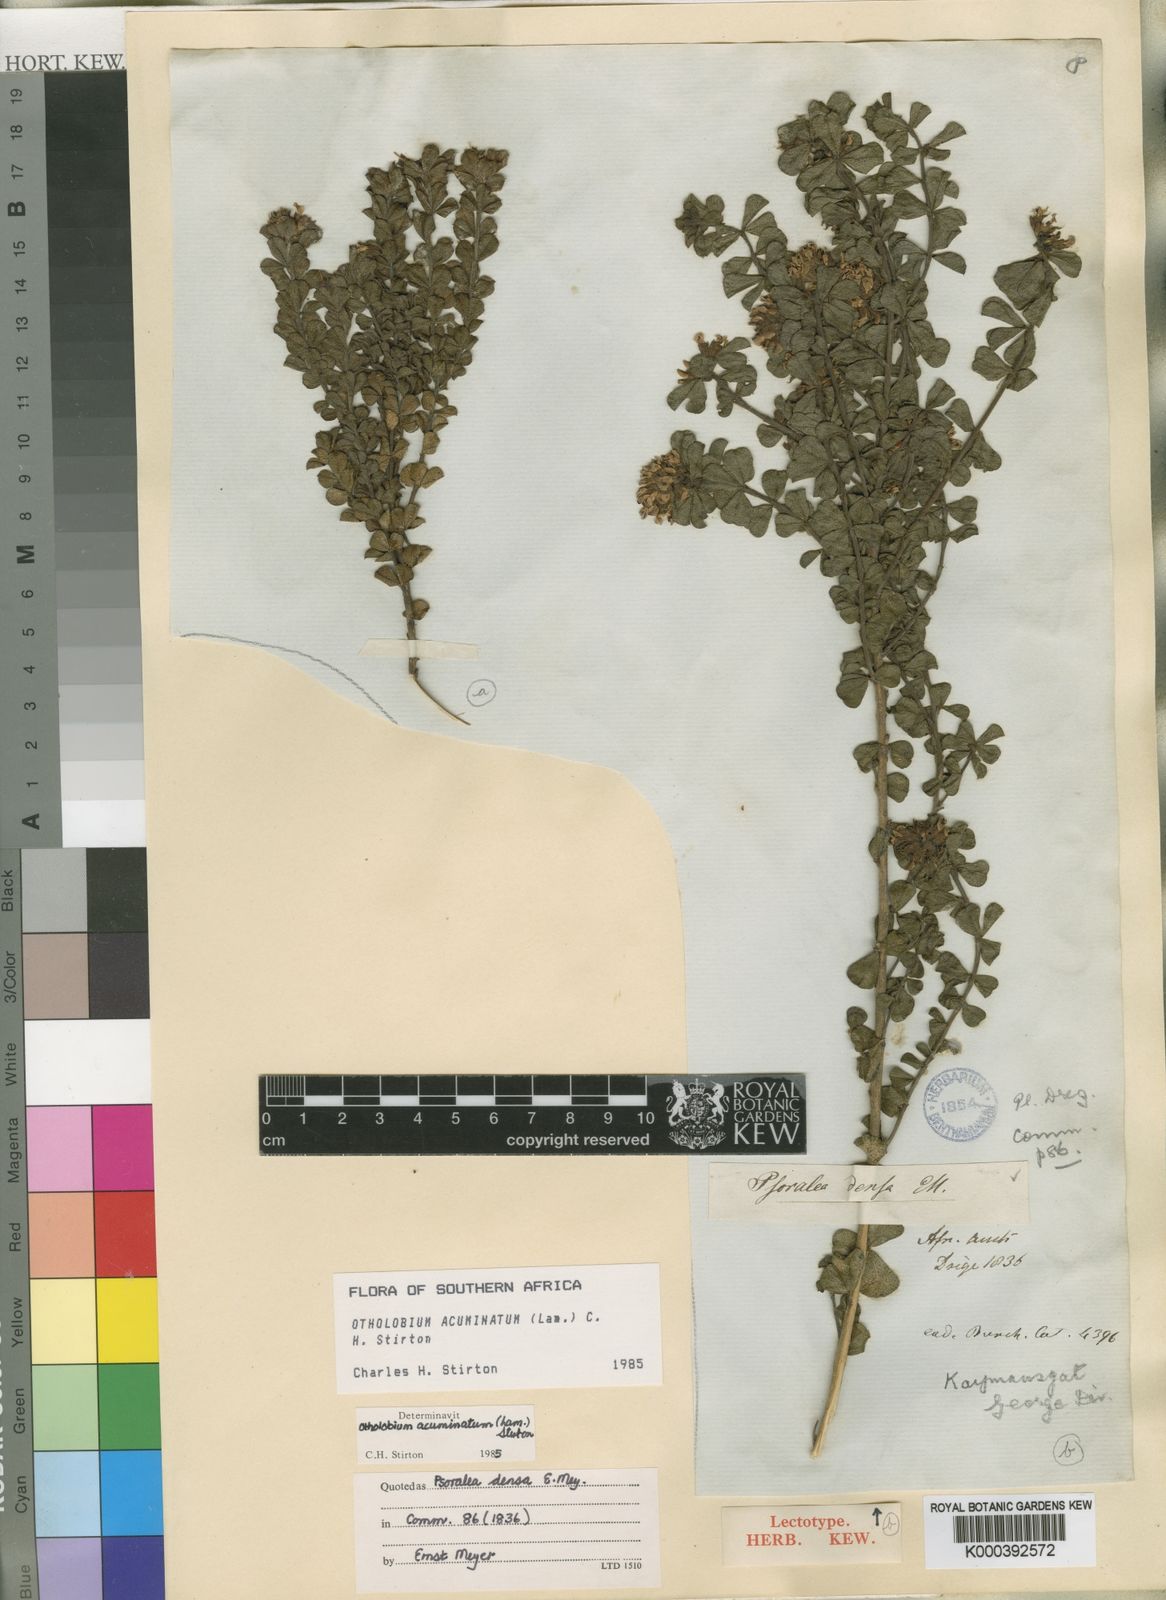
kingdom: Plantae
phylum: Tracheophyta
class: Magnoliopsida
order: Fabales
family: Fabaceae
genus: Psoralea
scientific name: Psoralea acuminata
